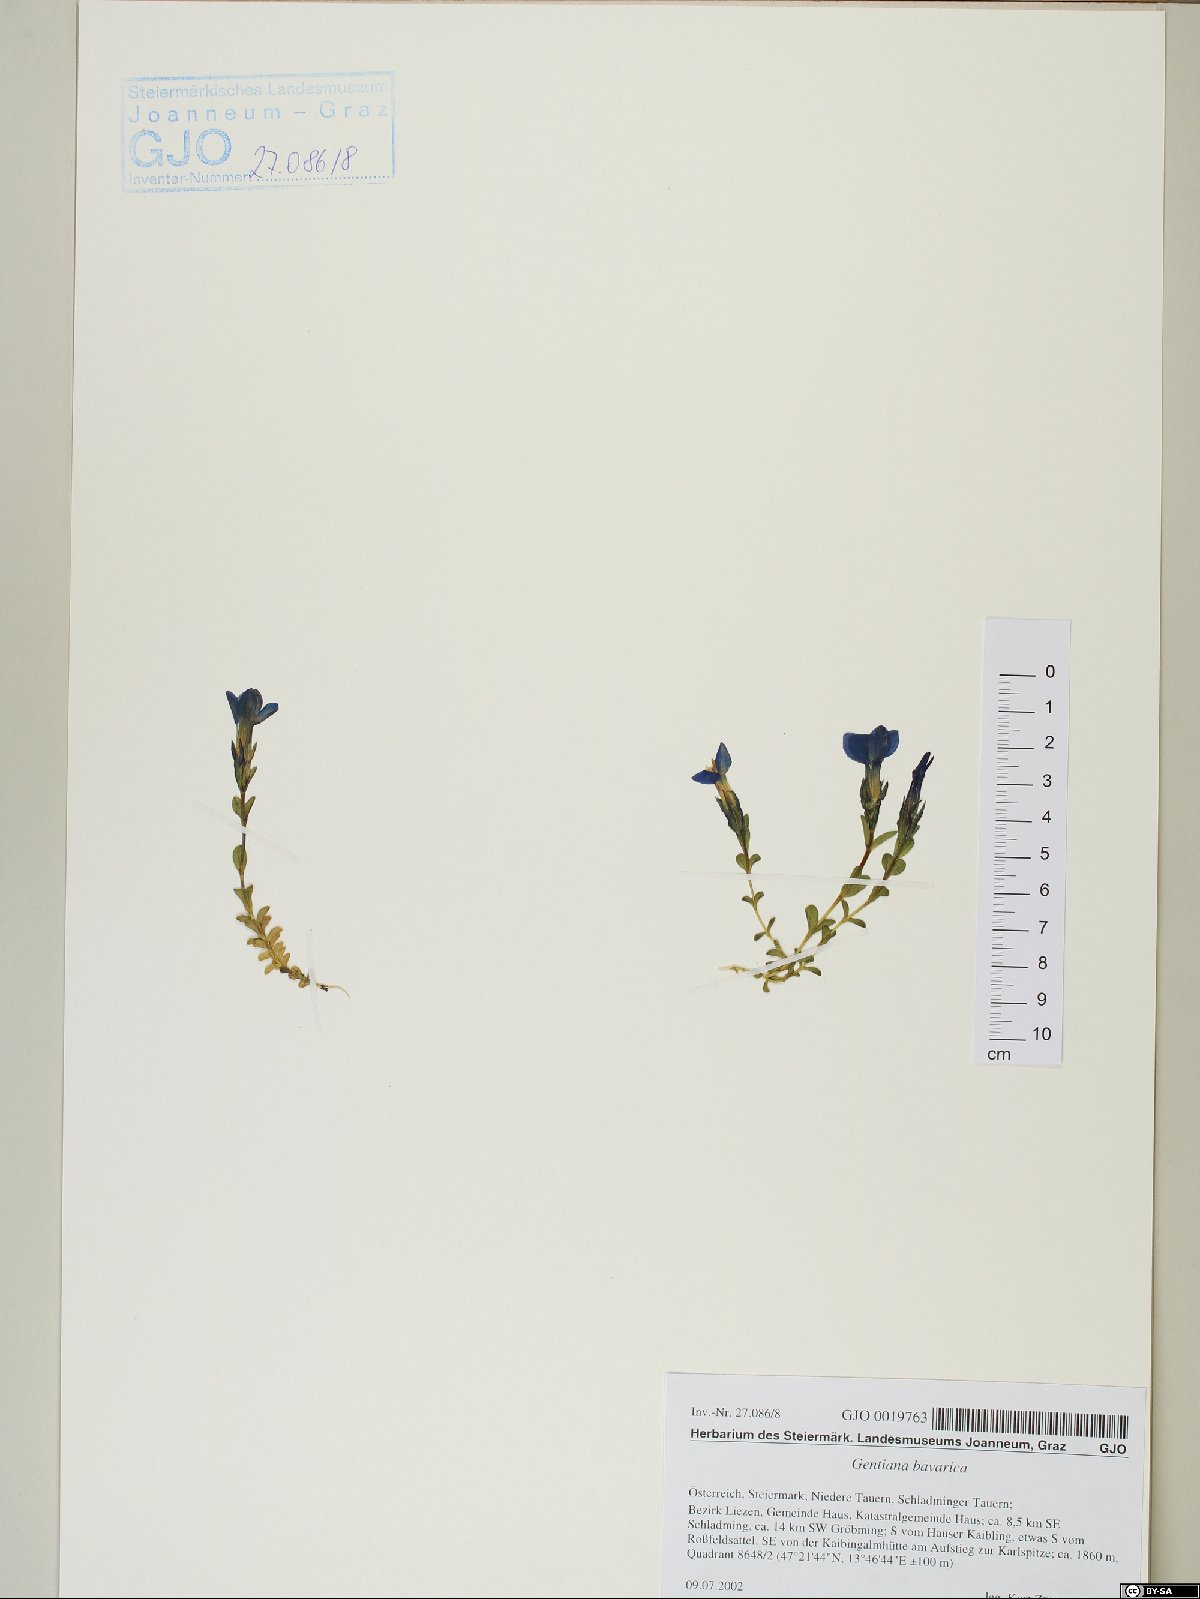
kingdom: Plantae
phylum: Tracheophyta
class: Magnoliopsida
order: Gentianales
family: Gentianaceae
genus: Gentiana
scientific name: Gentiana bavarica
